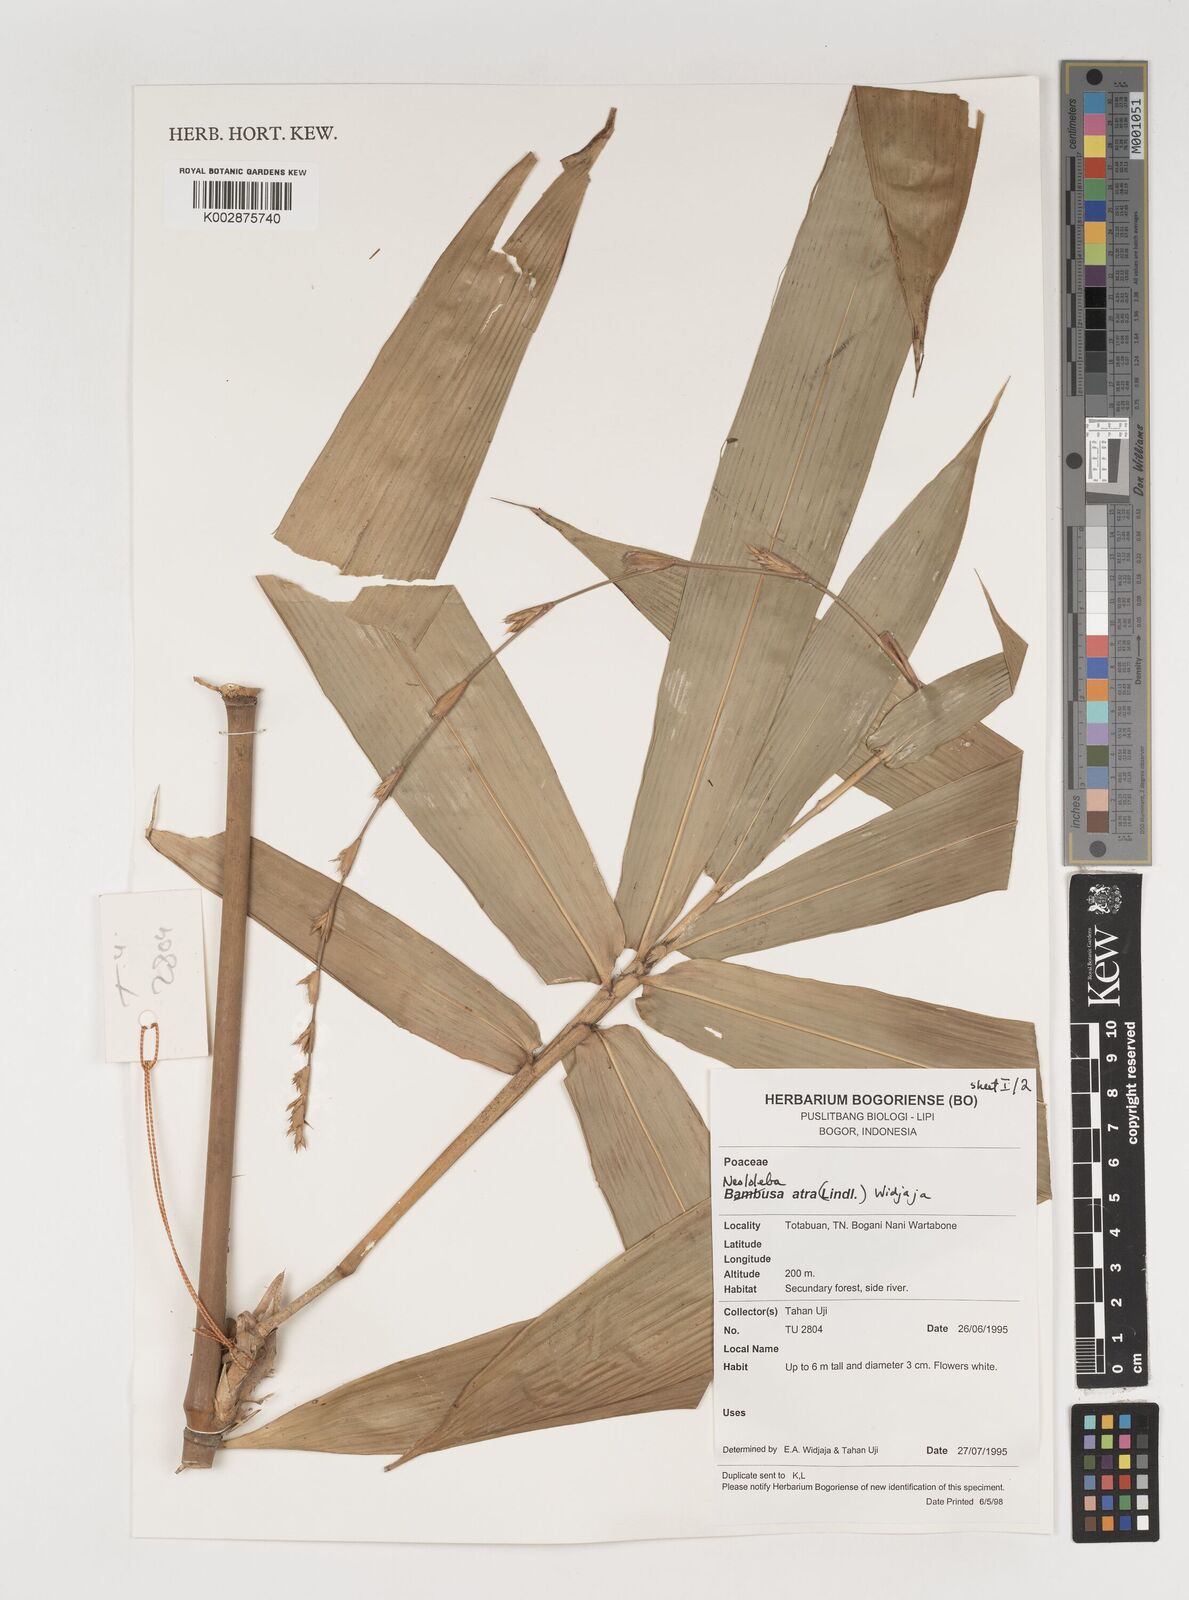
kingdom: Plantae
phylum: Tracheophyta
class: Liliopsida
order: Poales
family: Poaceae
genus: Neololeba
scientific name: Neololeba atra
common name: Cape bamboo
